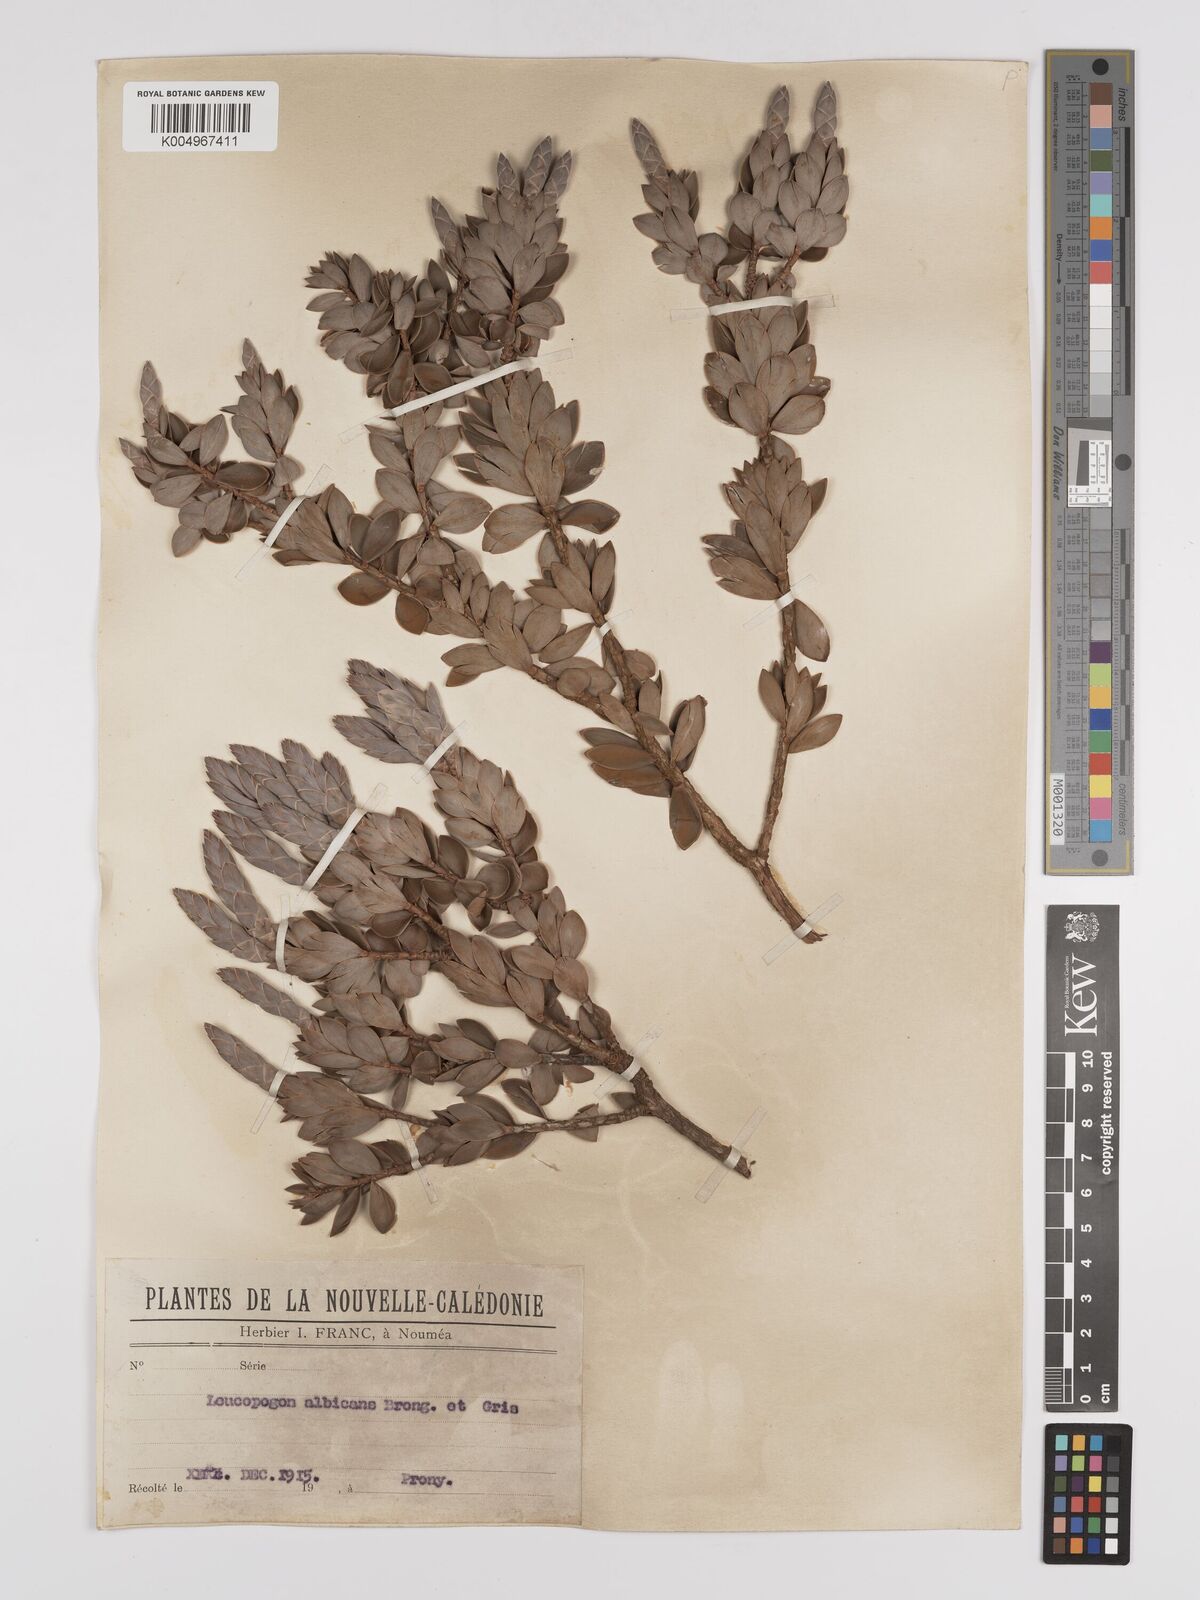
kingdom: Plantae
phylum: Tracheophyta
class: Magnoliopsida
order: Ericales
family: Ericaceae
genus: Cyathopsis
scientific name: Cyathopsis albicans
